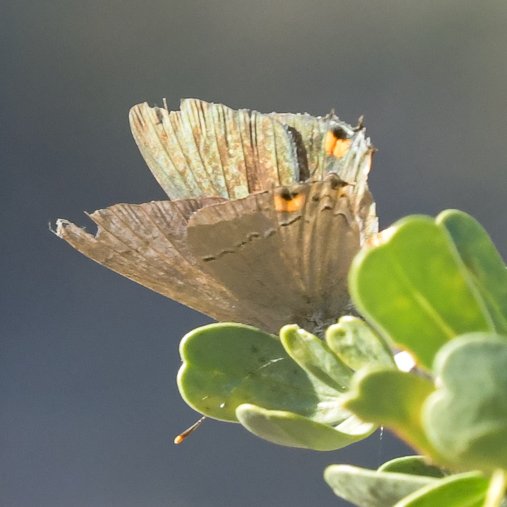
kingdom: Animalia
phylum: Arthropoda
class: Insecta
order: Lepidoptera
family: Lycaenidae
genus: Strymon
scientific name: Strymon melinus
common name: Gray Hairstreak
